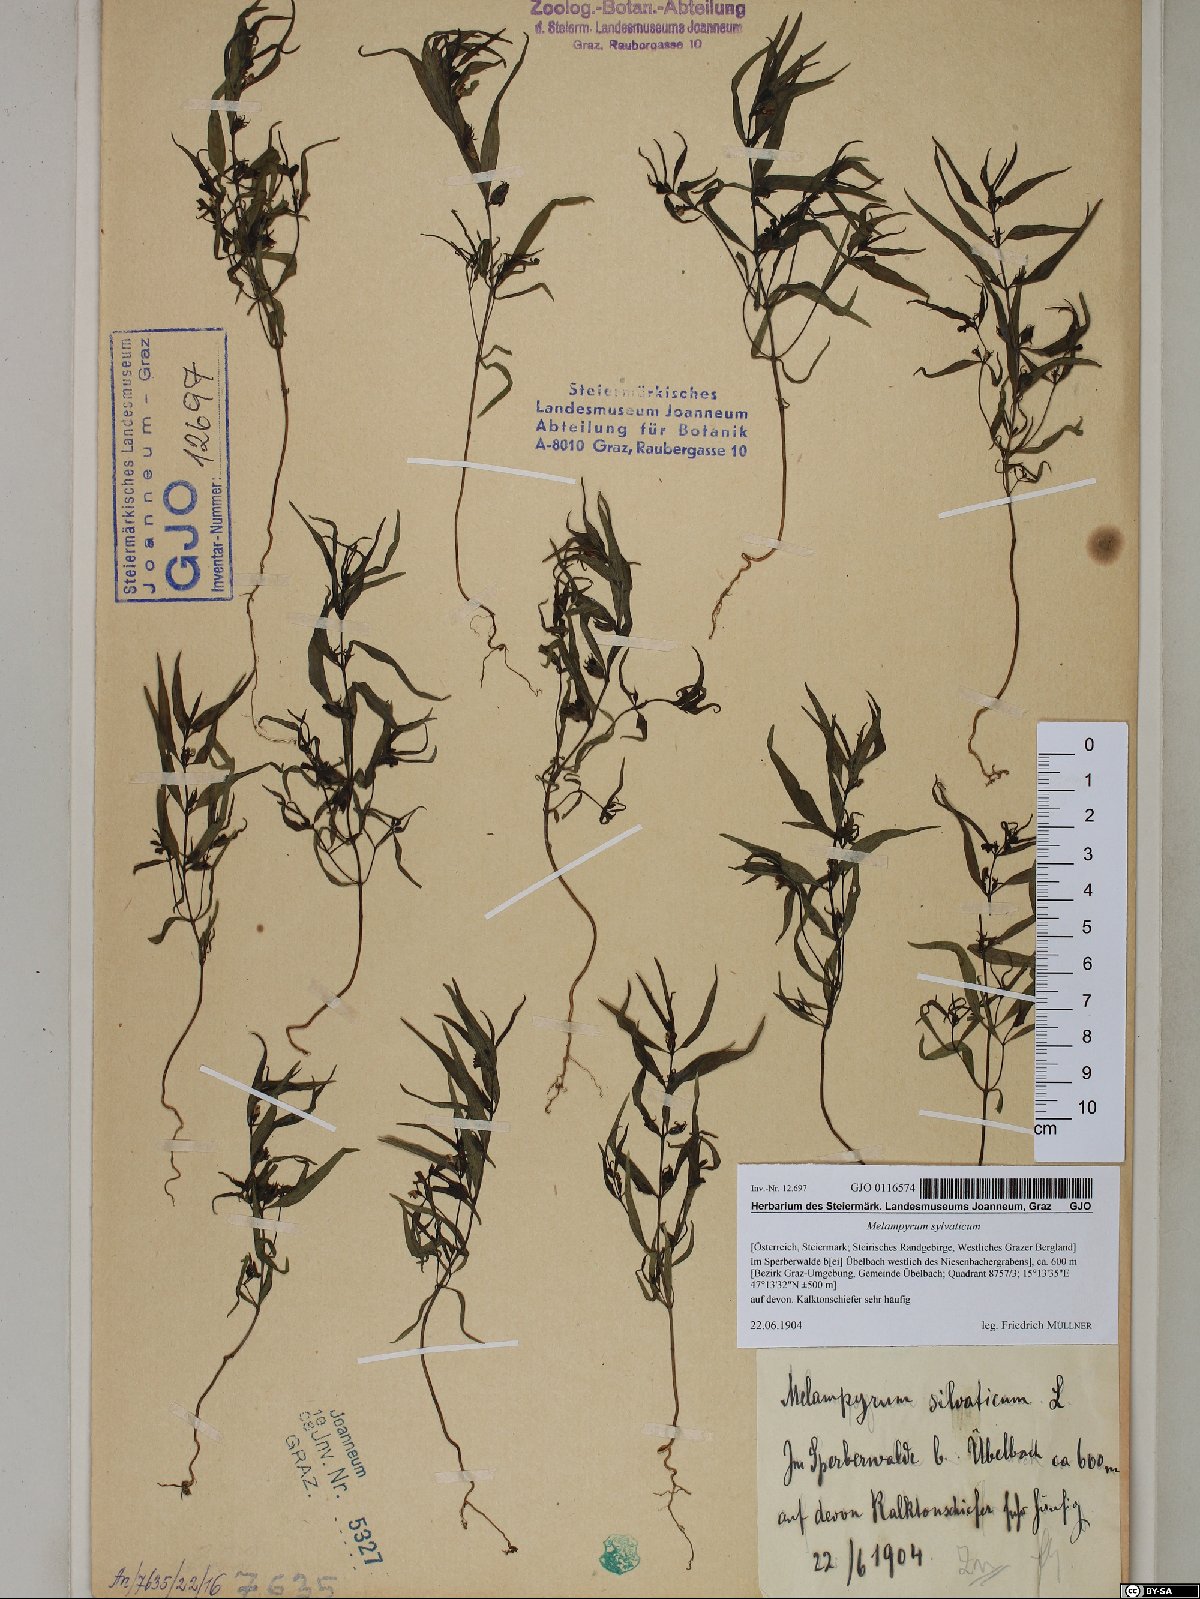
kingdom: Plantae
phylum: Tracheophyta
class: Magnoliopsida
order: Lamiales
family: Orobanchaceae
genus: Melampyrum
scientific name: Melampyrum sylvaticum
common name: Small cow-wheat
